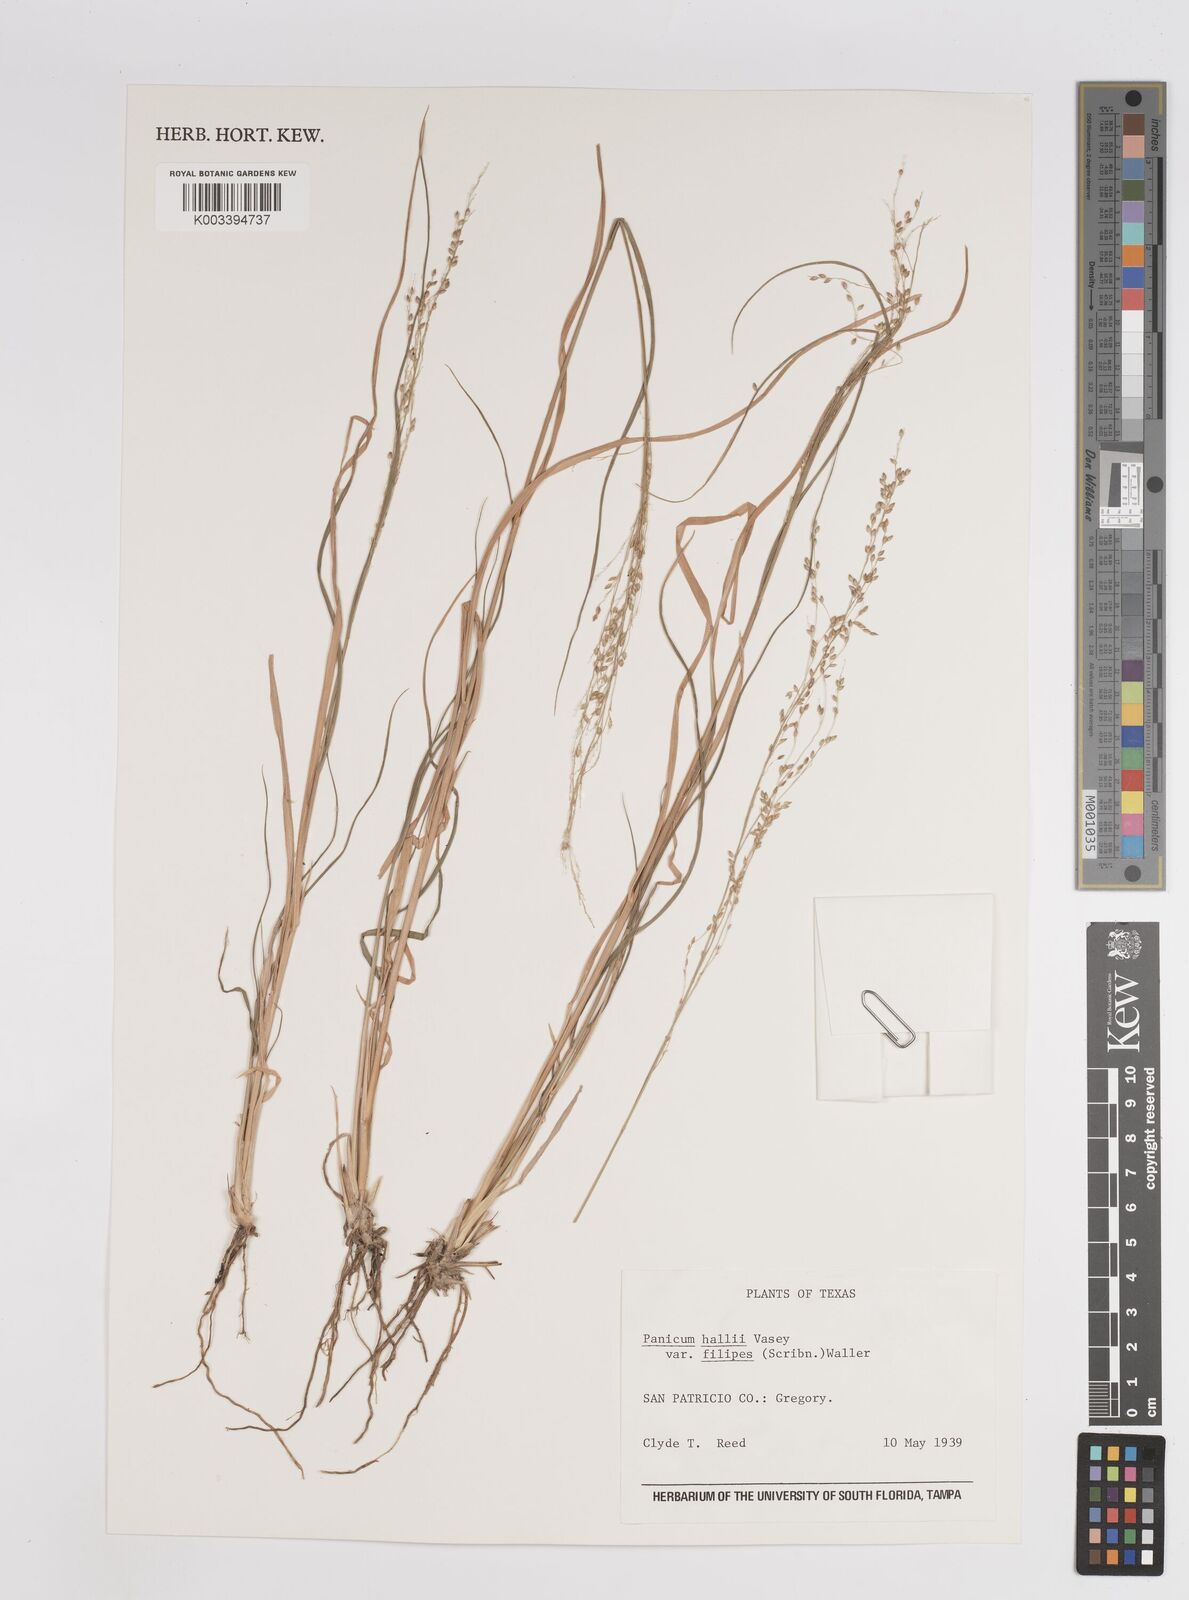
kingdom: Plantae
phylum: Tracheophyta
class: Liliopsida
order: Poales
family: Poaceae
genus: Panicum
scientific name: Panicum hallii
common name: Hall's witchgrass
